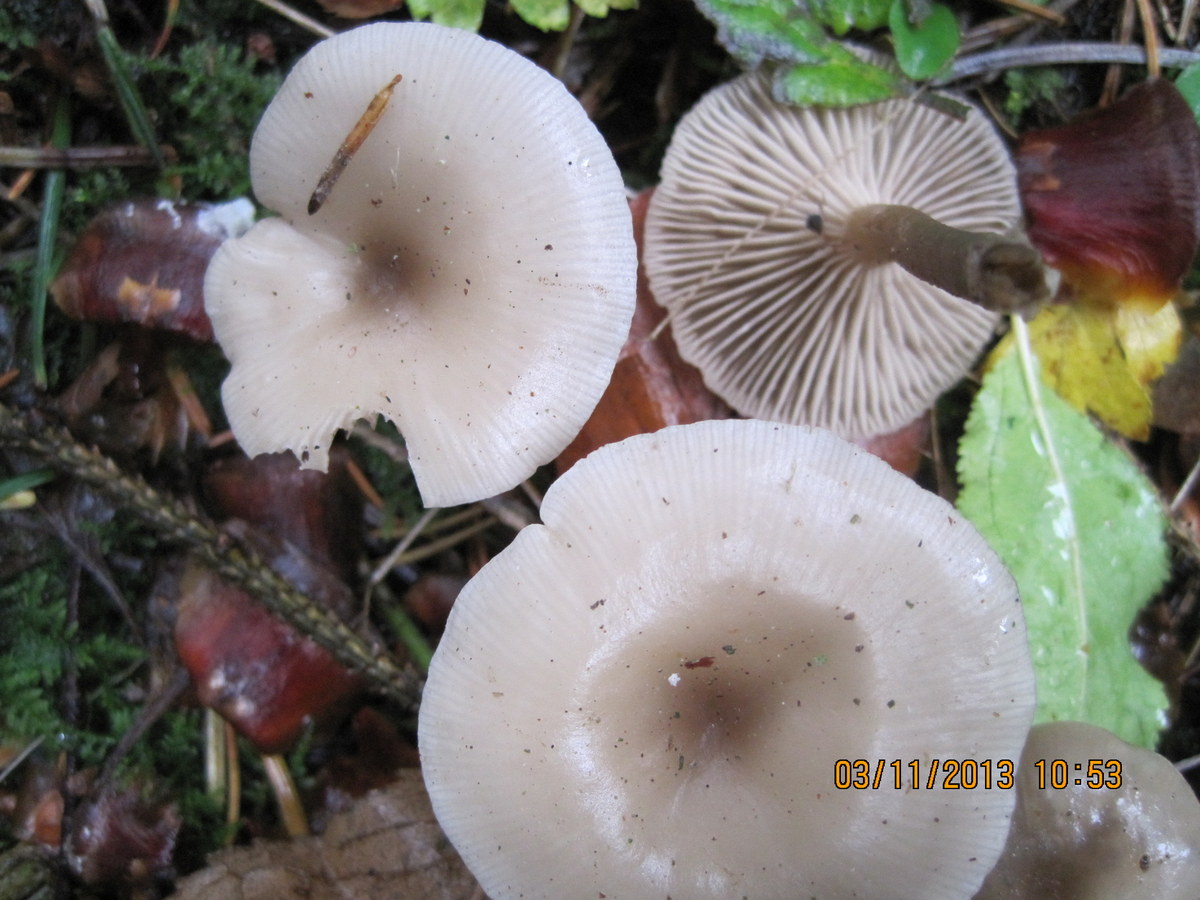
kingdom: Fungi
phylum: Basidiomycota
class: Agaricomycetes
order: Agaricales
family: Tricholomataceae
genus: Clitocybe
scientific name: Clitocybe vibecina
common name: randstribet tragthat
